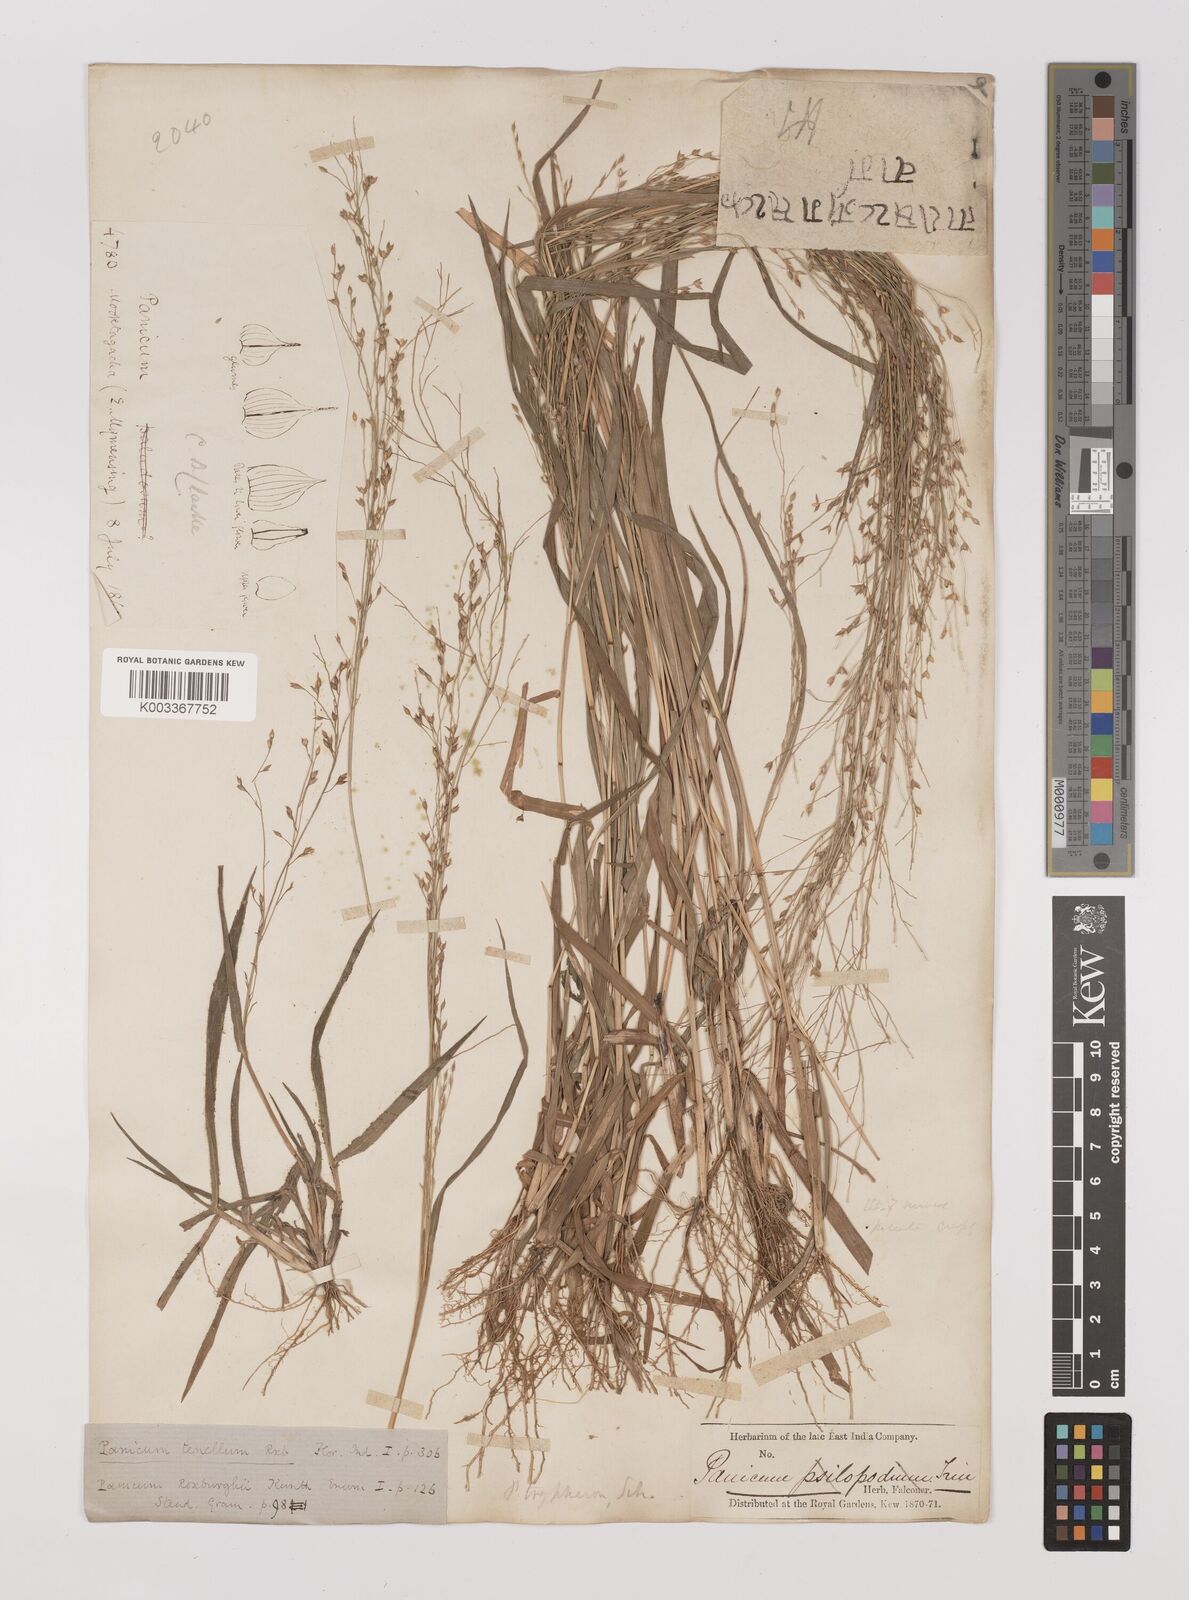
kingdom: Plantae
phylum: Tracheophyta
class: Liliopsida
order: Poales
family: Poaceae
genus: Panicum
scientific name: Panicum curviflorum
